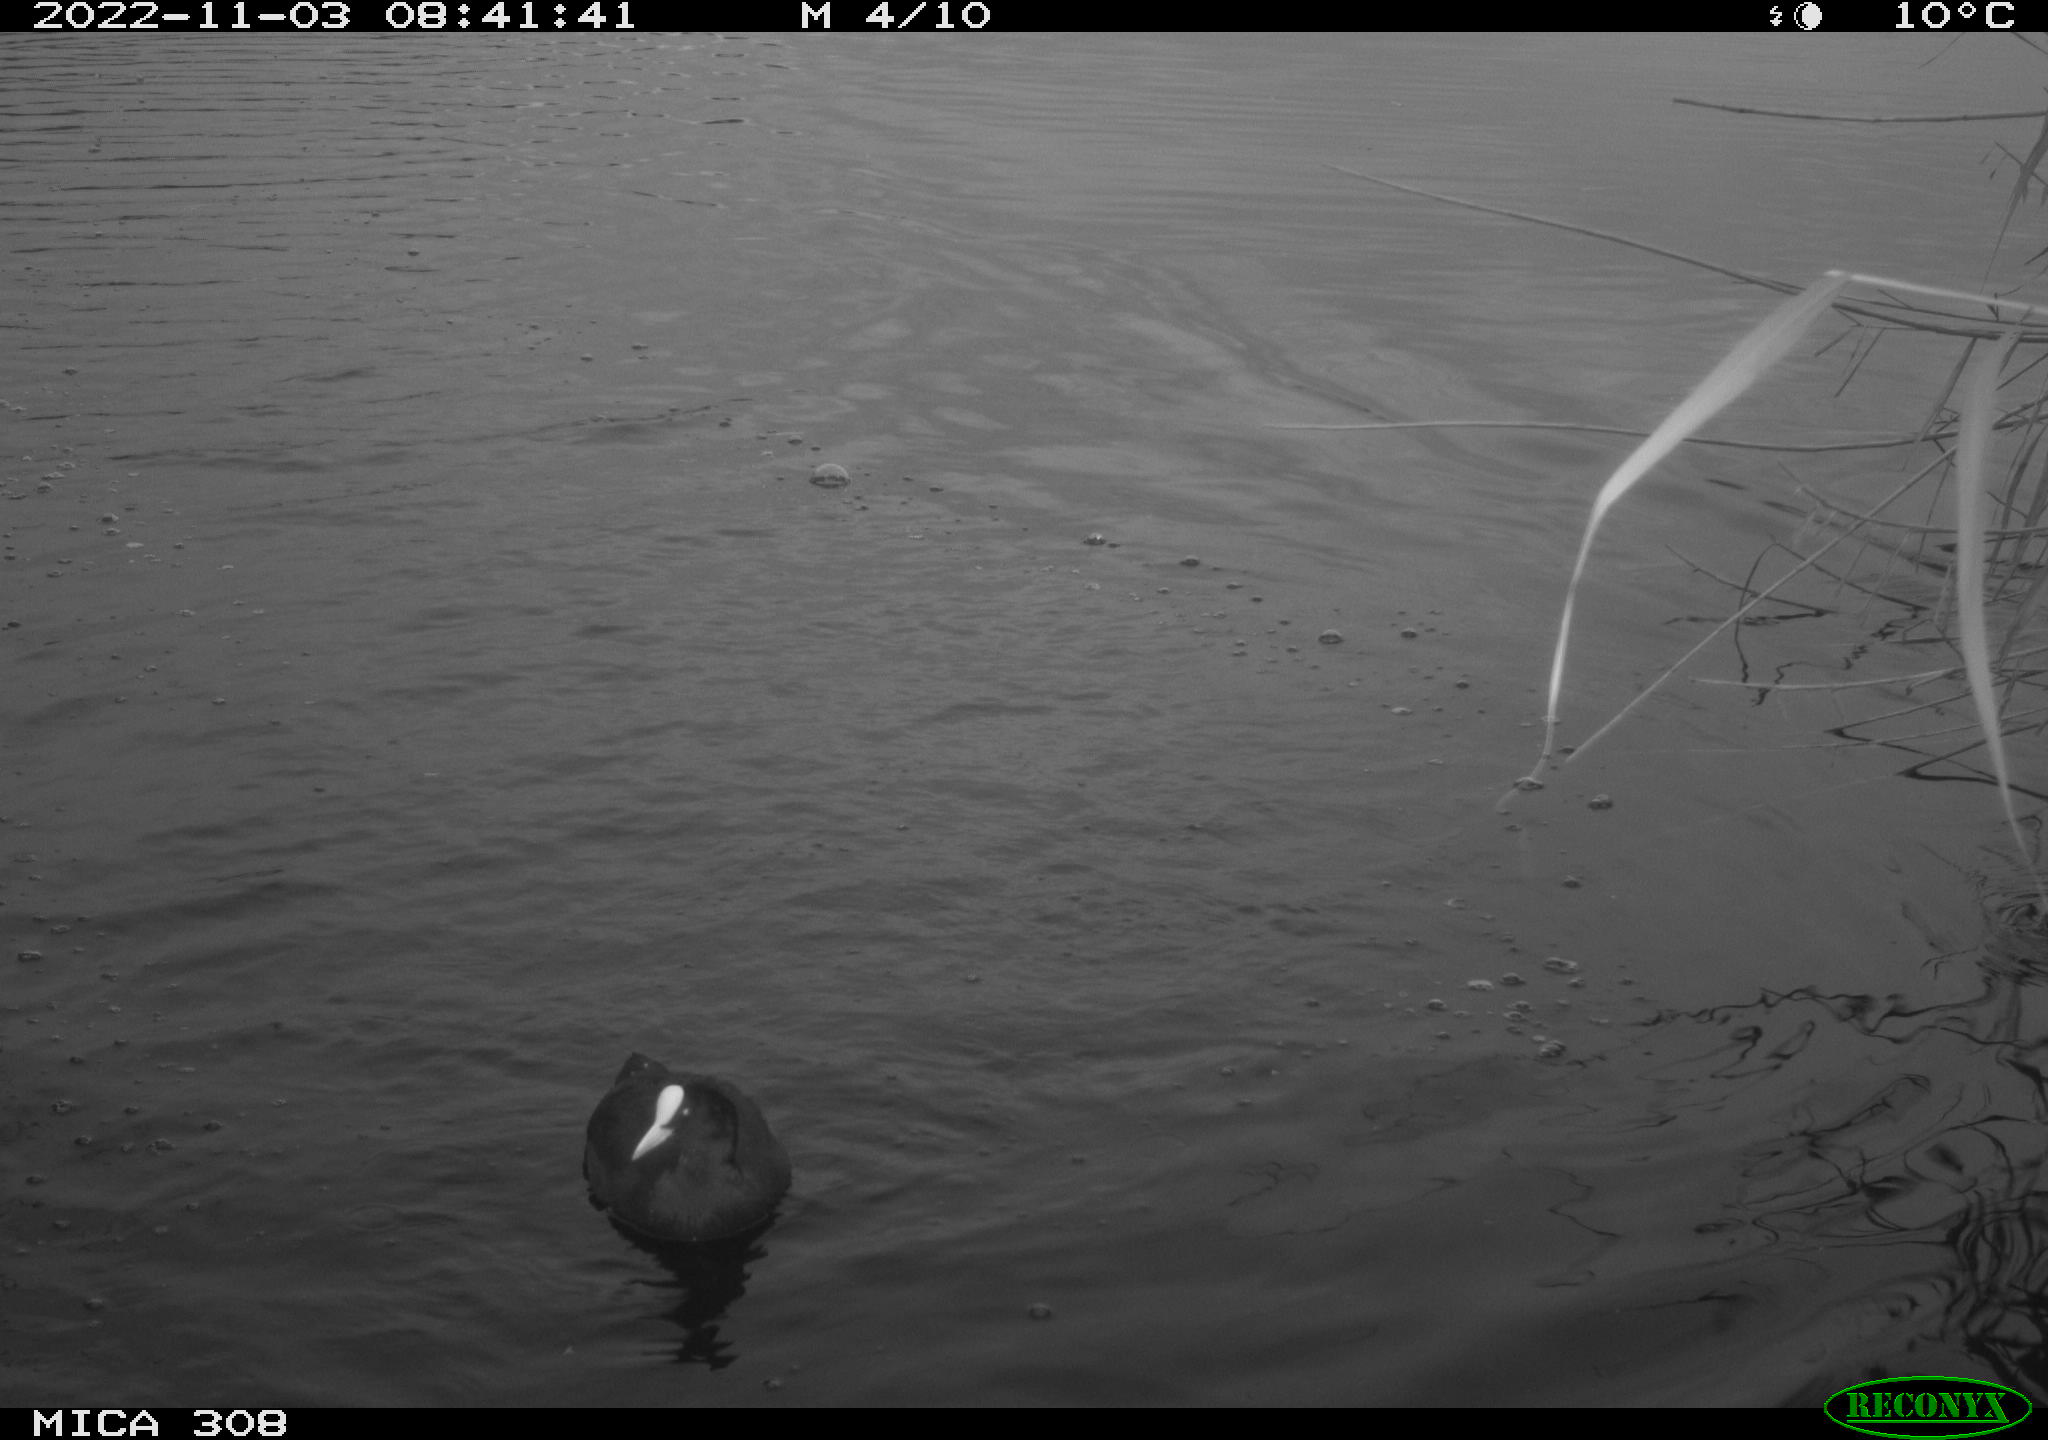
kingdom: Animalia
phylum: Chordata
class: Aves
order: Gruiformes
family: Rallidae
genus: Fulica
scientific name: Fulica atra
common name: Eurasian coot
